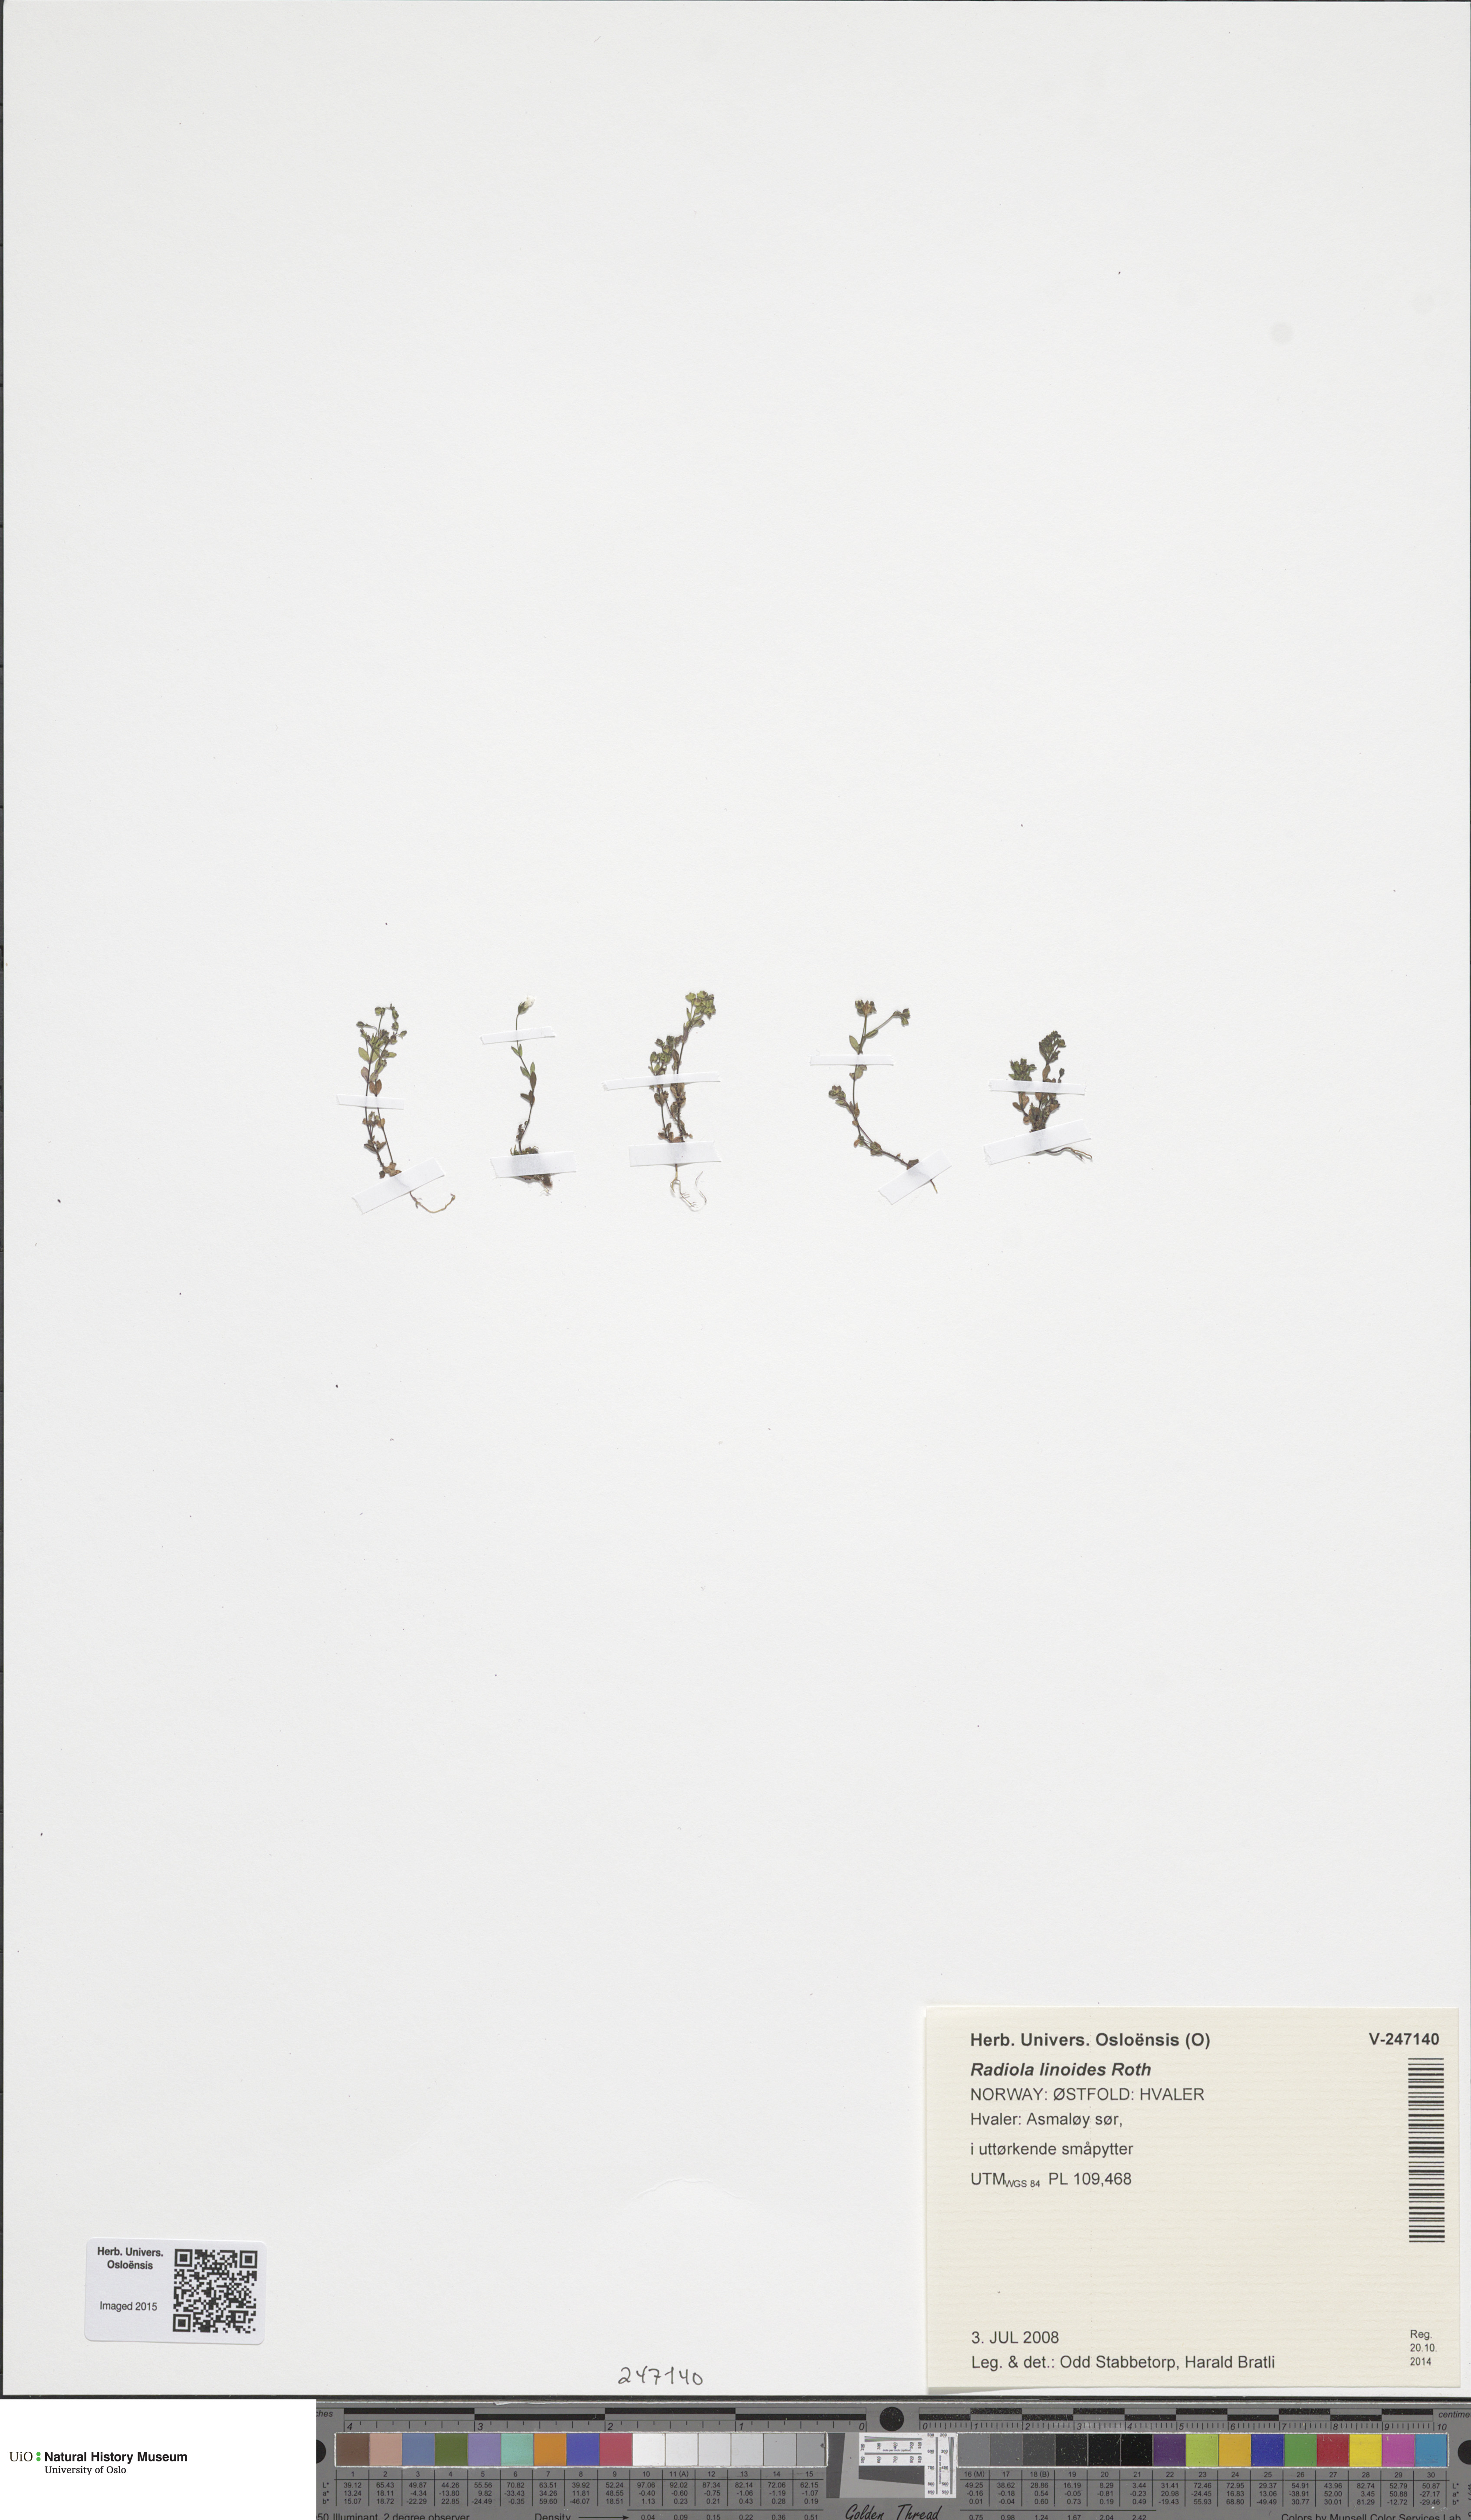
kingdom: Plantae
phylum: Tracheophyta
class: Magnoliopsida
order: Malpighiales
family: Linaceae
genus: Radiola
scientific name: Radiola linoides
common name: Allseed
